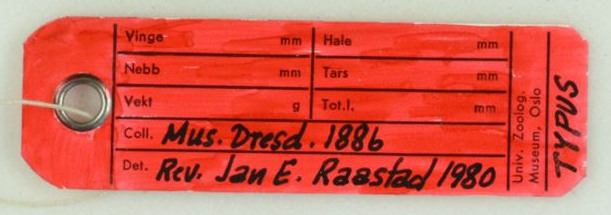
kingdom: Animalia
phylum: Chordata
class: Aves
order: Psittaciformes
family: Psittacidae
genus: Geoffroyus
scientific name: Geoffroyus geoffroyi
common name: Red-cheeked parrot
